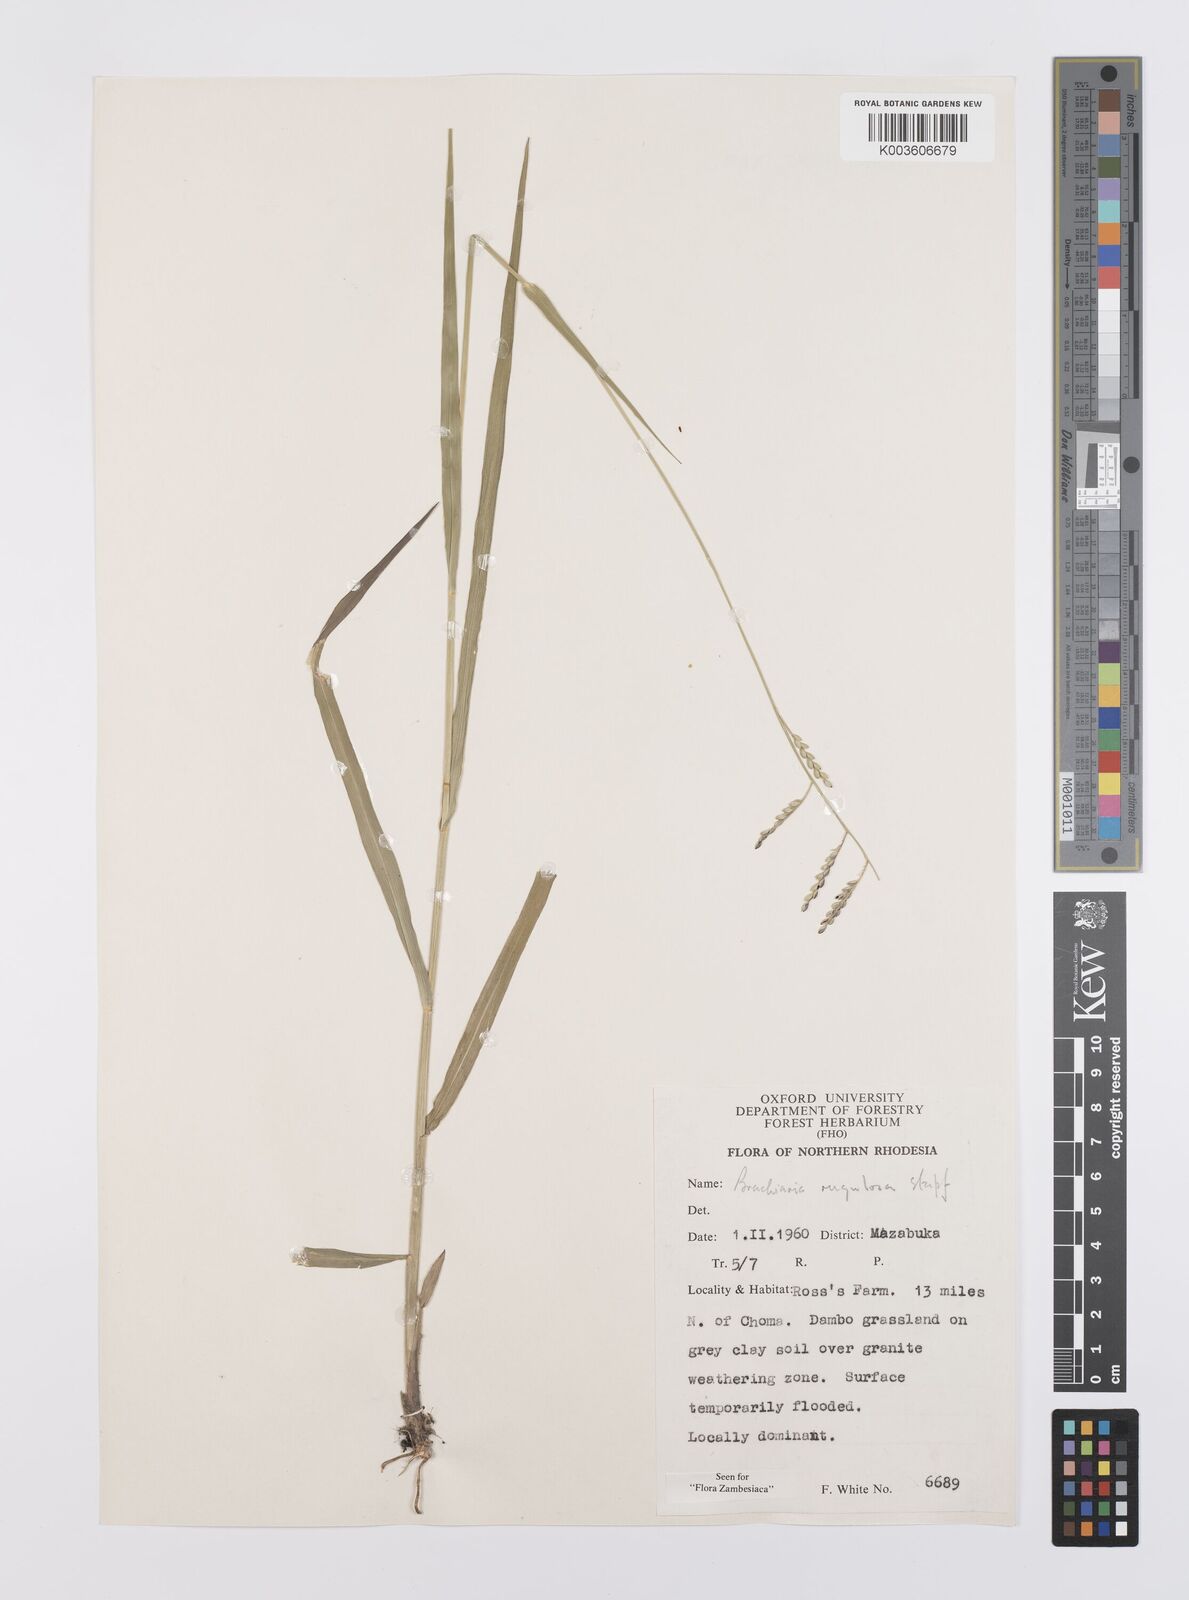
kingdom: Plantae
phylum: Tracheophyta
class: Liliopsida
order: Poales
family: Poaceae
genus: Urochloa
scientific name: Urochloa rugulosa
